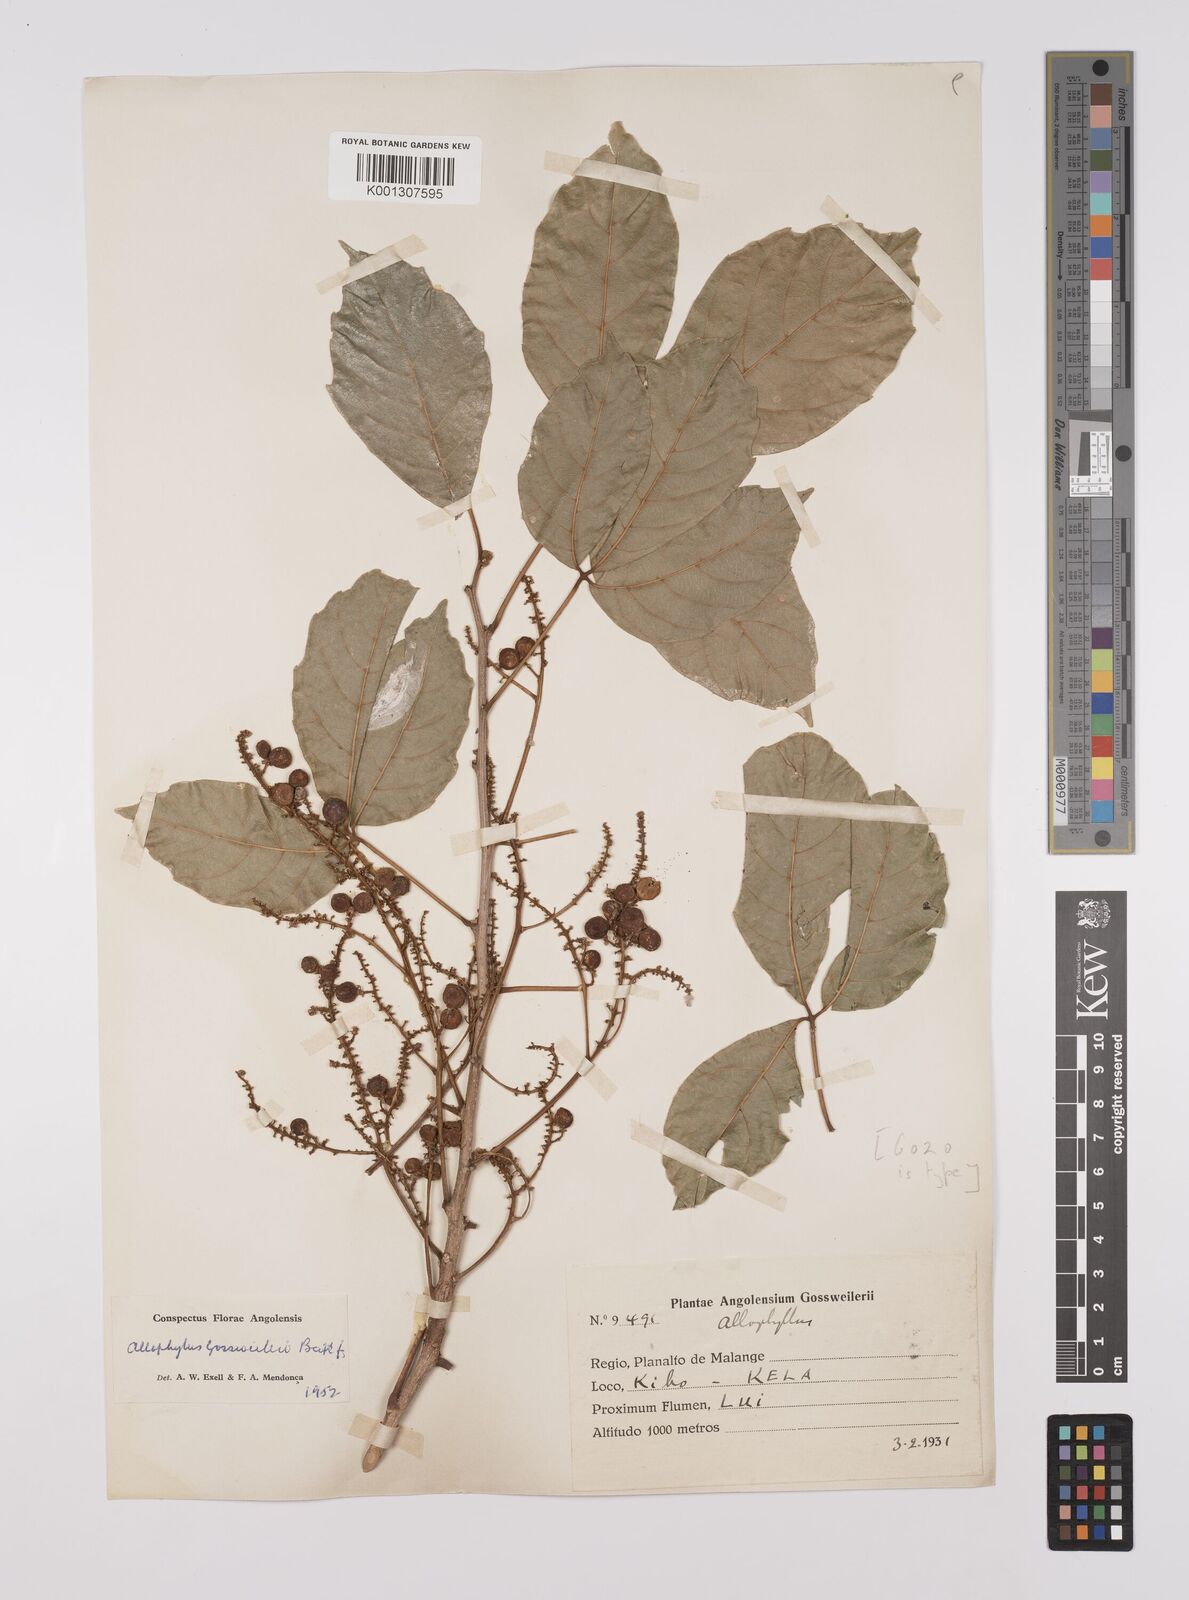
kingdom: Plantae
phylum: Tracheophyta
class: Magnoliopsida
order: Sapindales
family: Sapindaceae
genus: Allophylus
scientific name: Allophylus gossweileri
